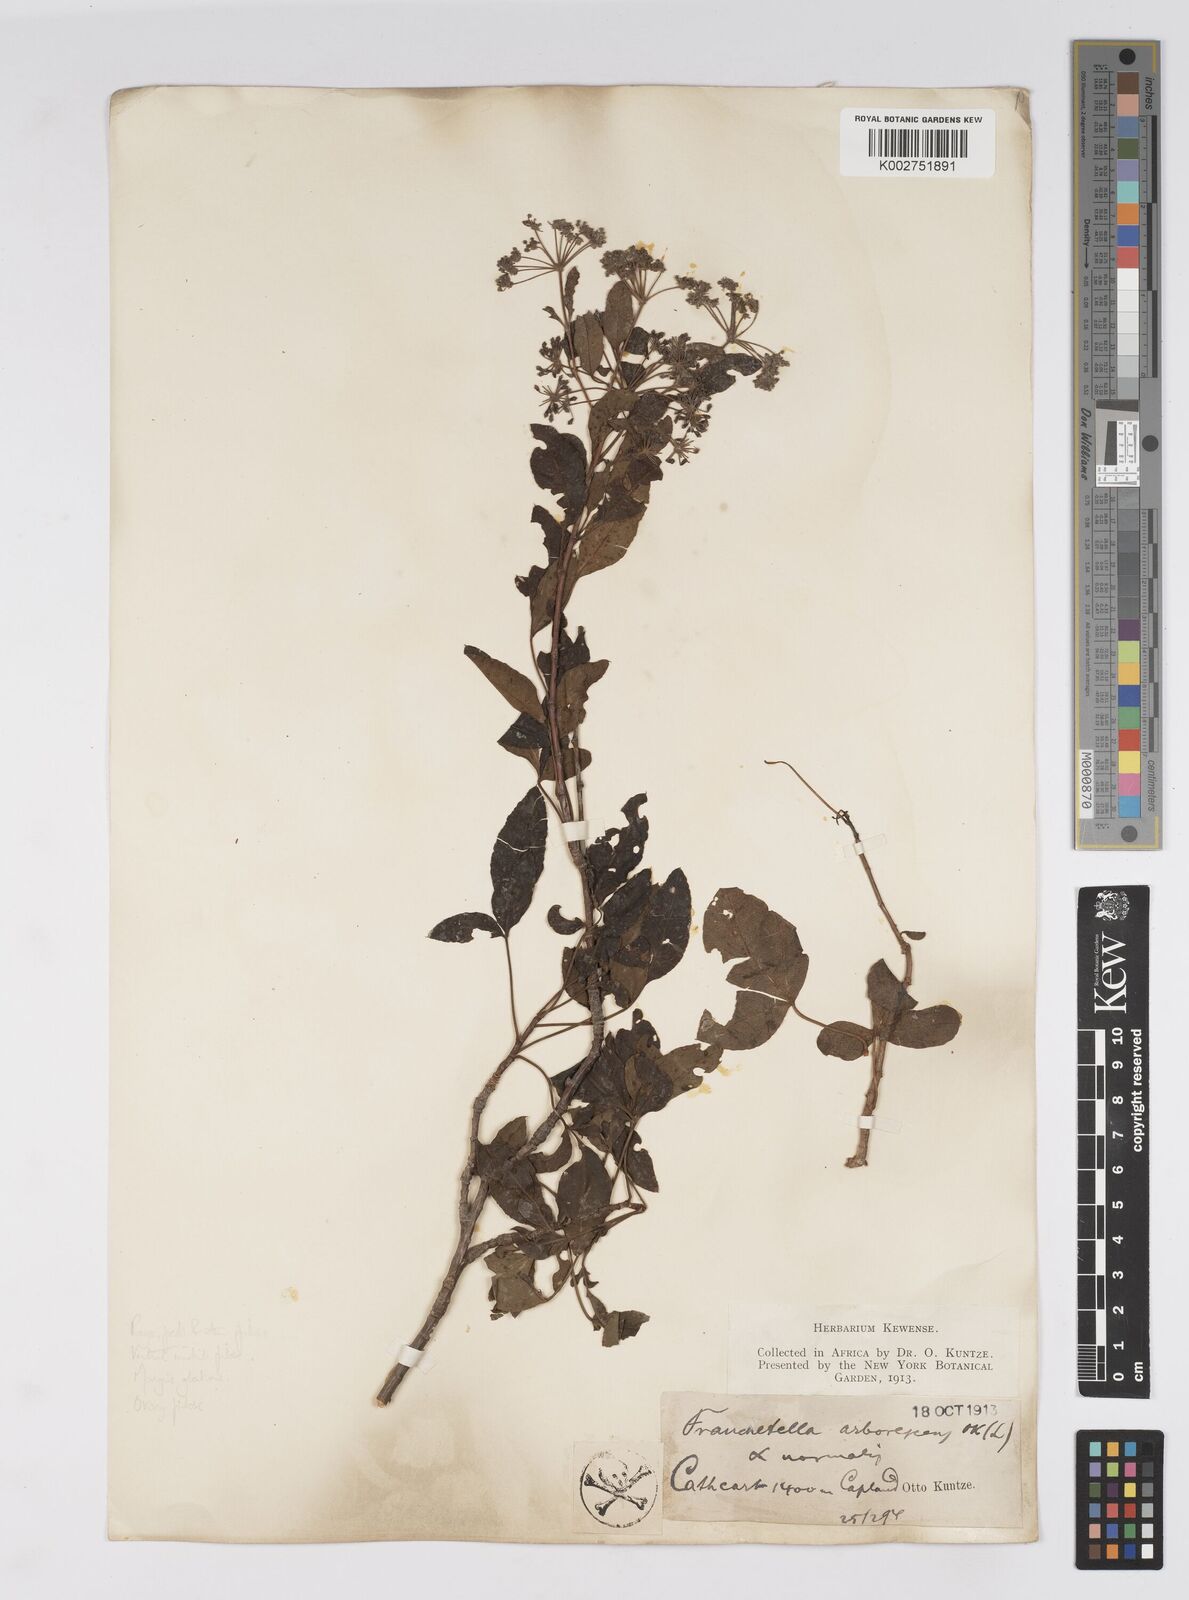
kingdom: Plantae
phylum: Tracheophyta
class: Magnoliopsida
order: Apiales
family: Apiaceae
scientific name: Apiaceae
